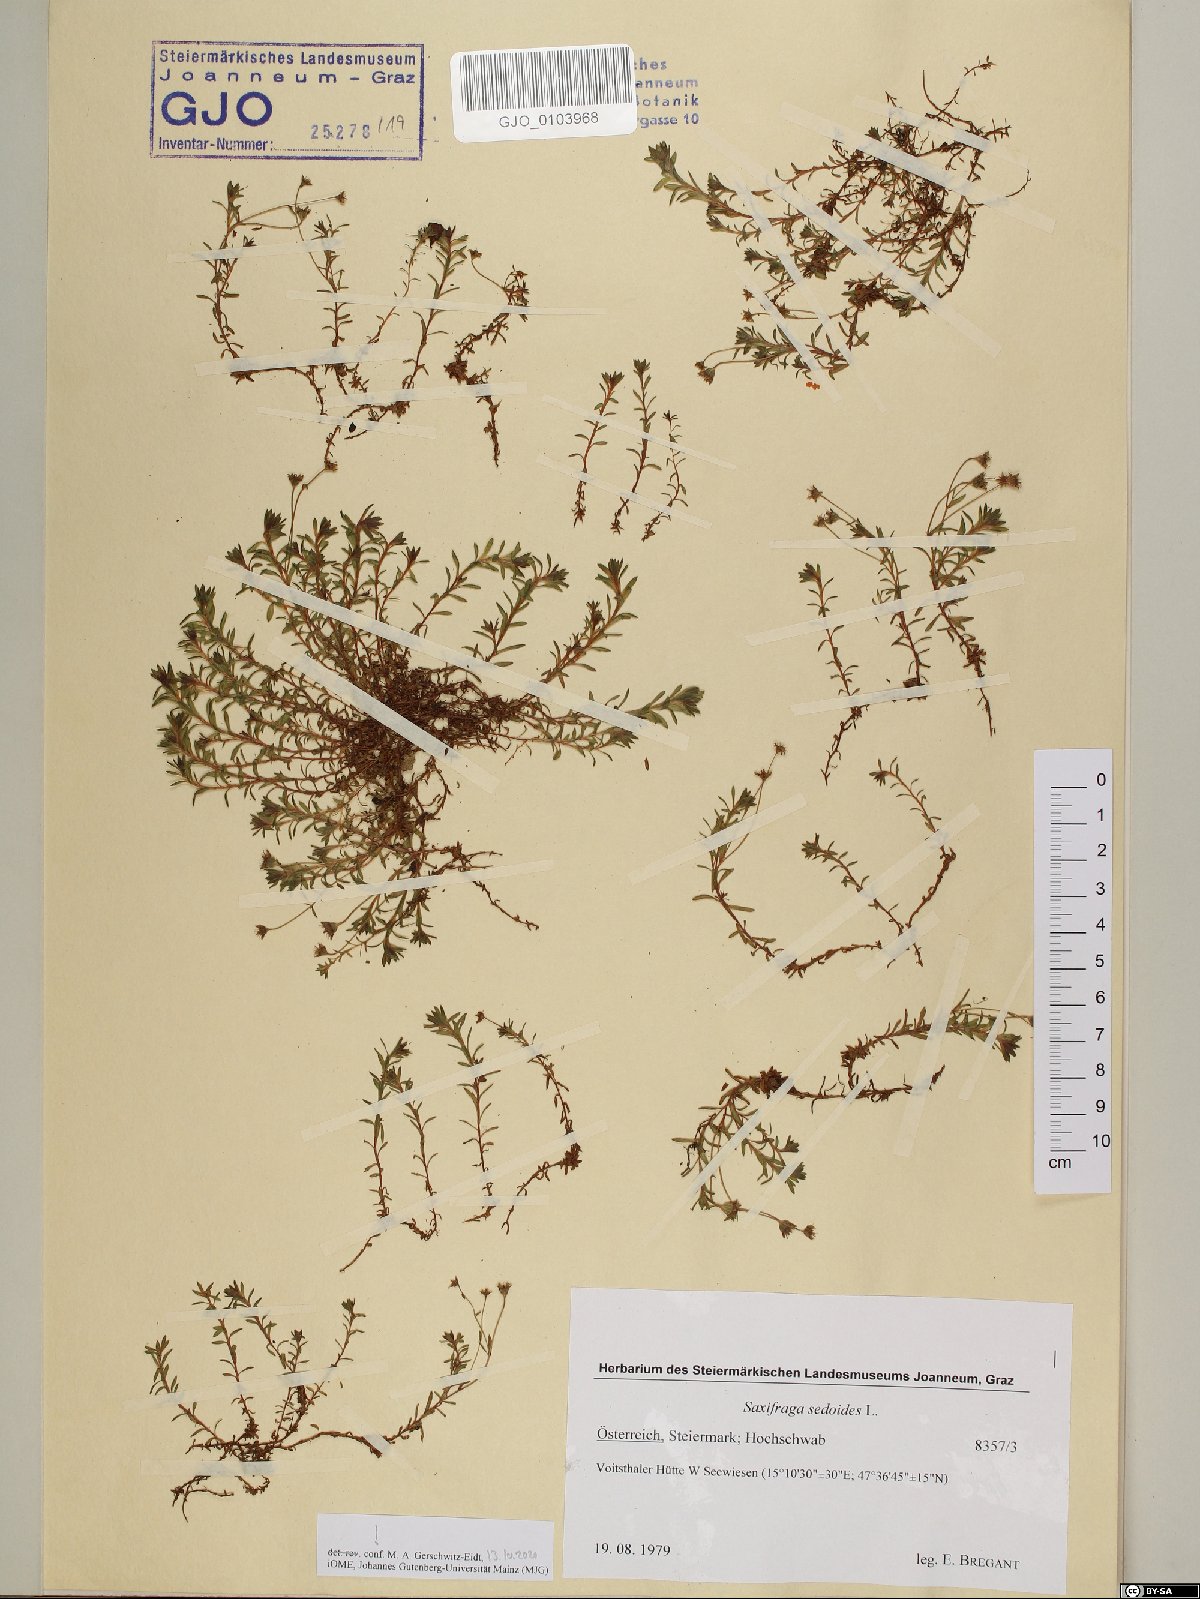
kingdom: Plantae
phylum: Tracheophyta
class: Magnoliopsida
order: Saxifragales
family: Saxifragaceae
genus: Saxifraga
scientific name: Saxifraga sedoides
